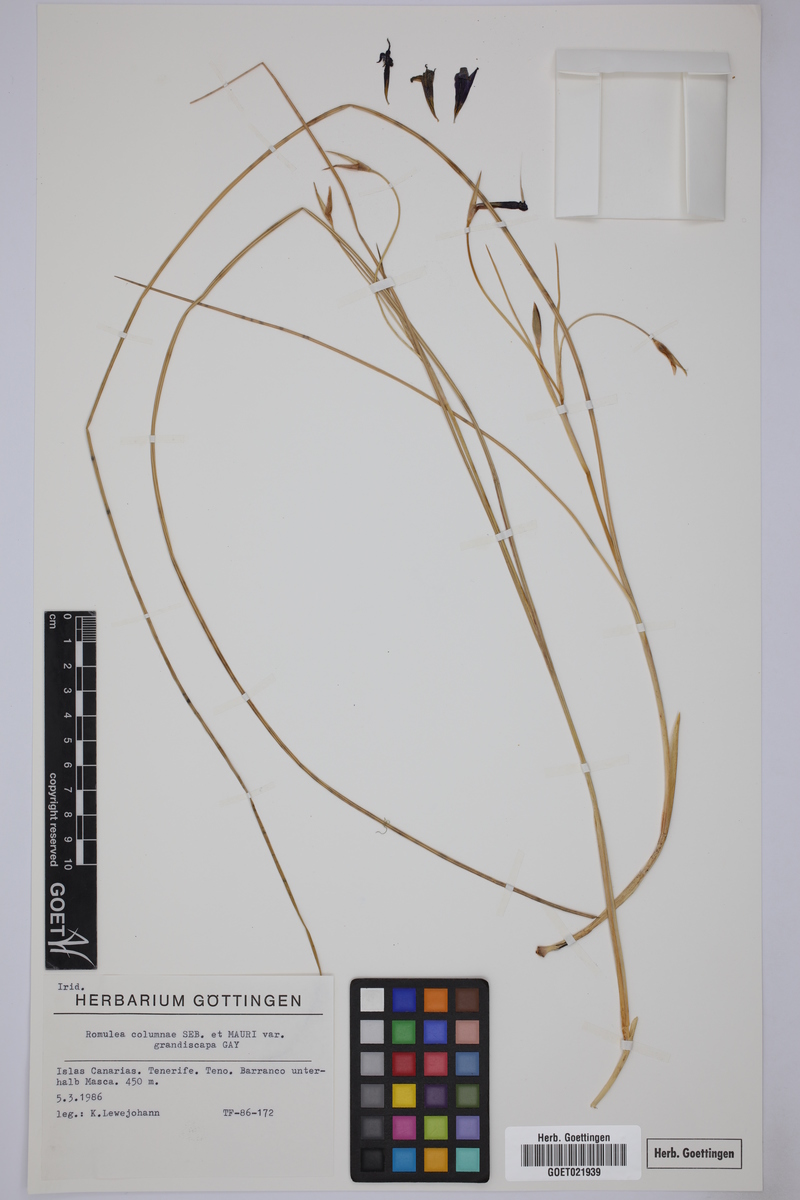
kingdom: Plantae
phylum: Tracheophyta
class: Liliopsida
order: Asparagales
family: Iridaceae
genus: Romulea
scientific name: Romulea columnae
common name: Sand-crocus
